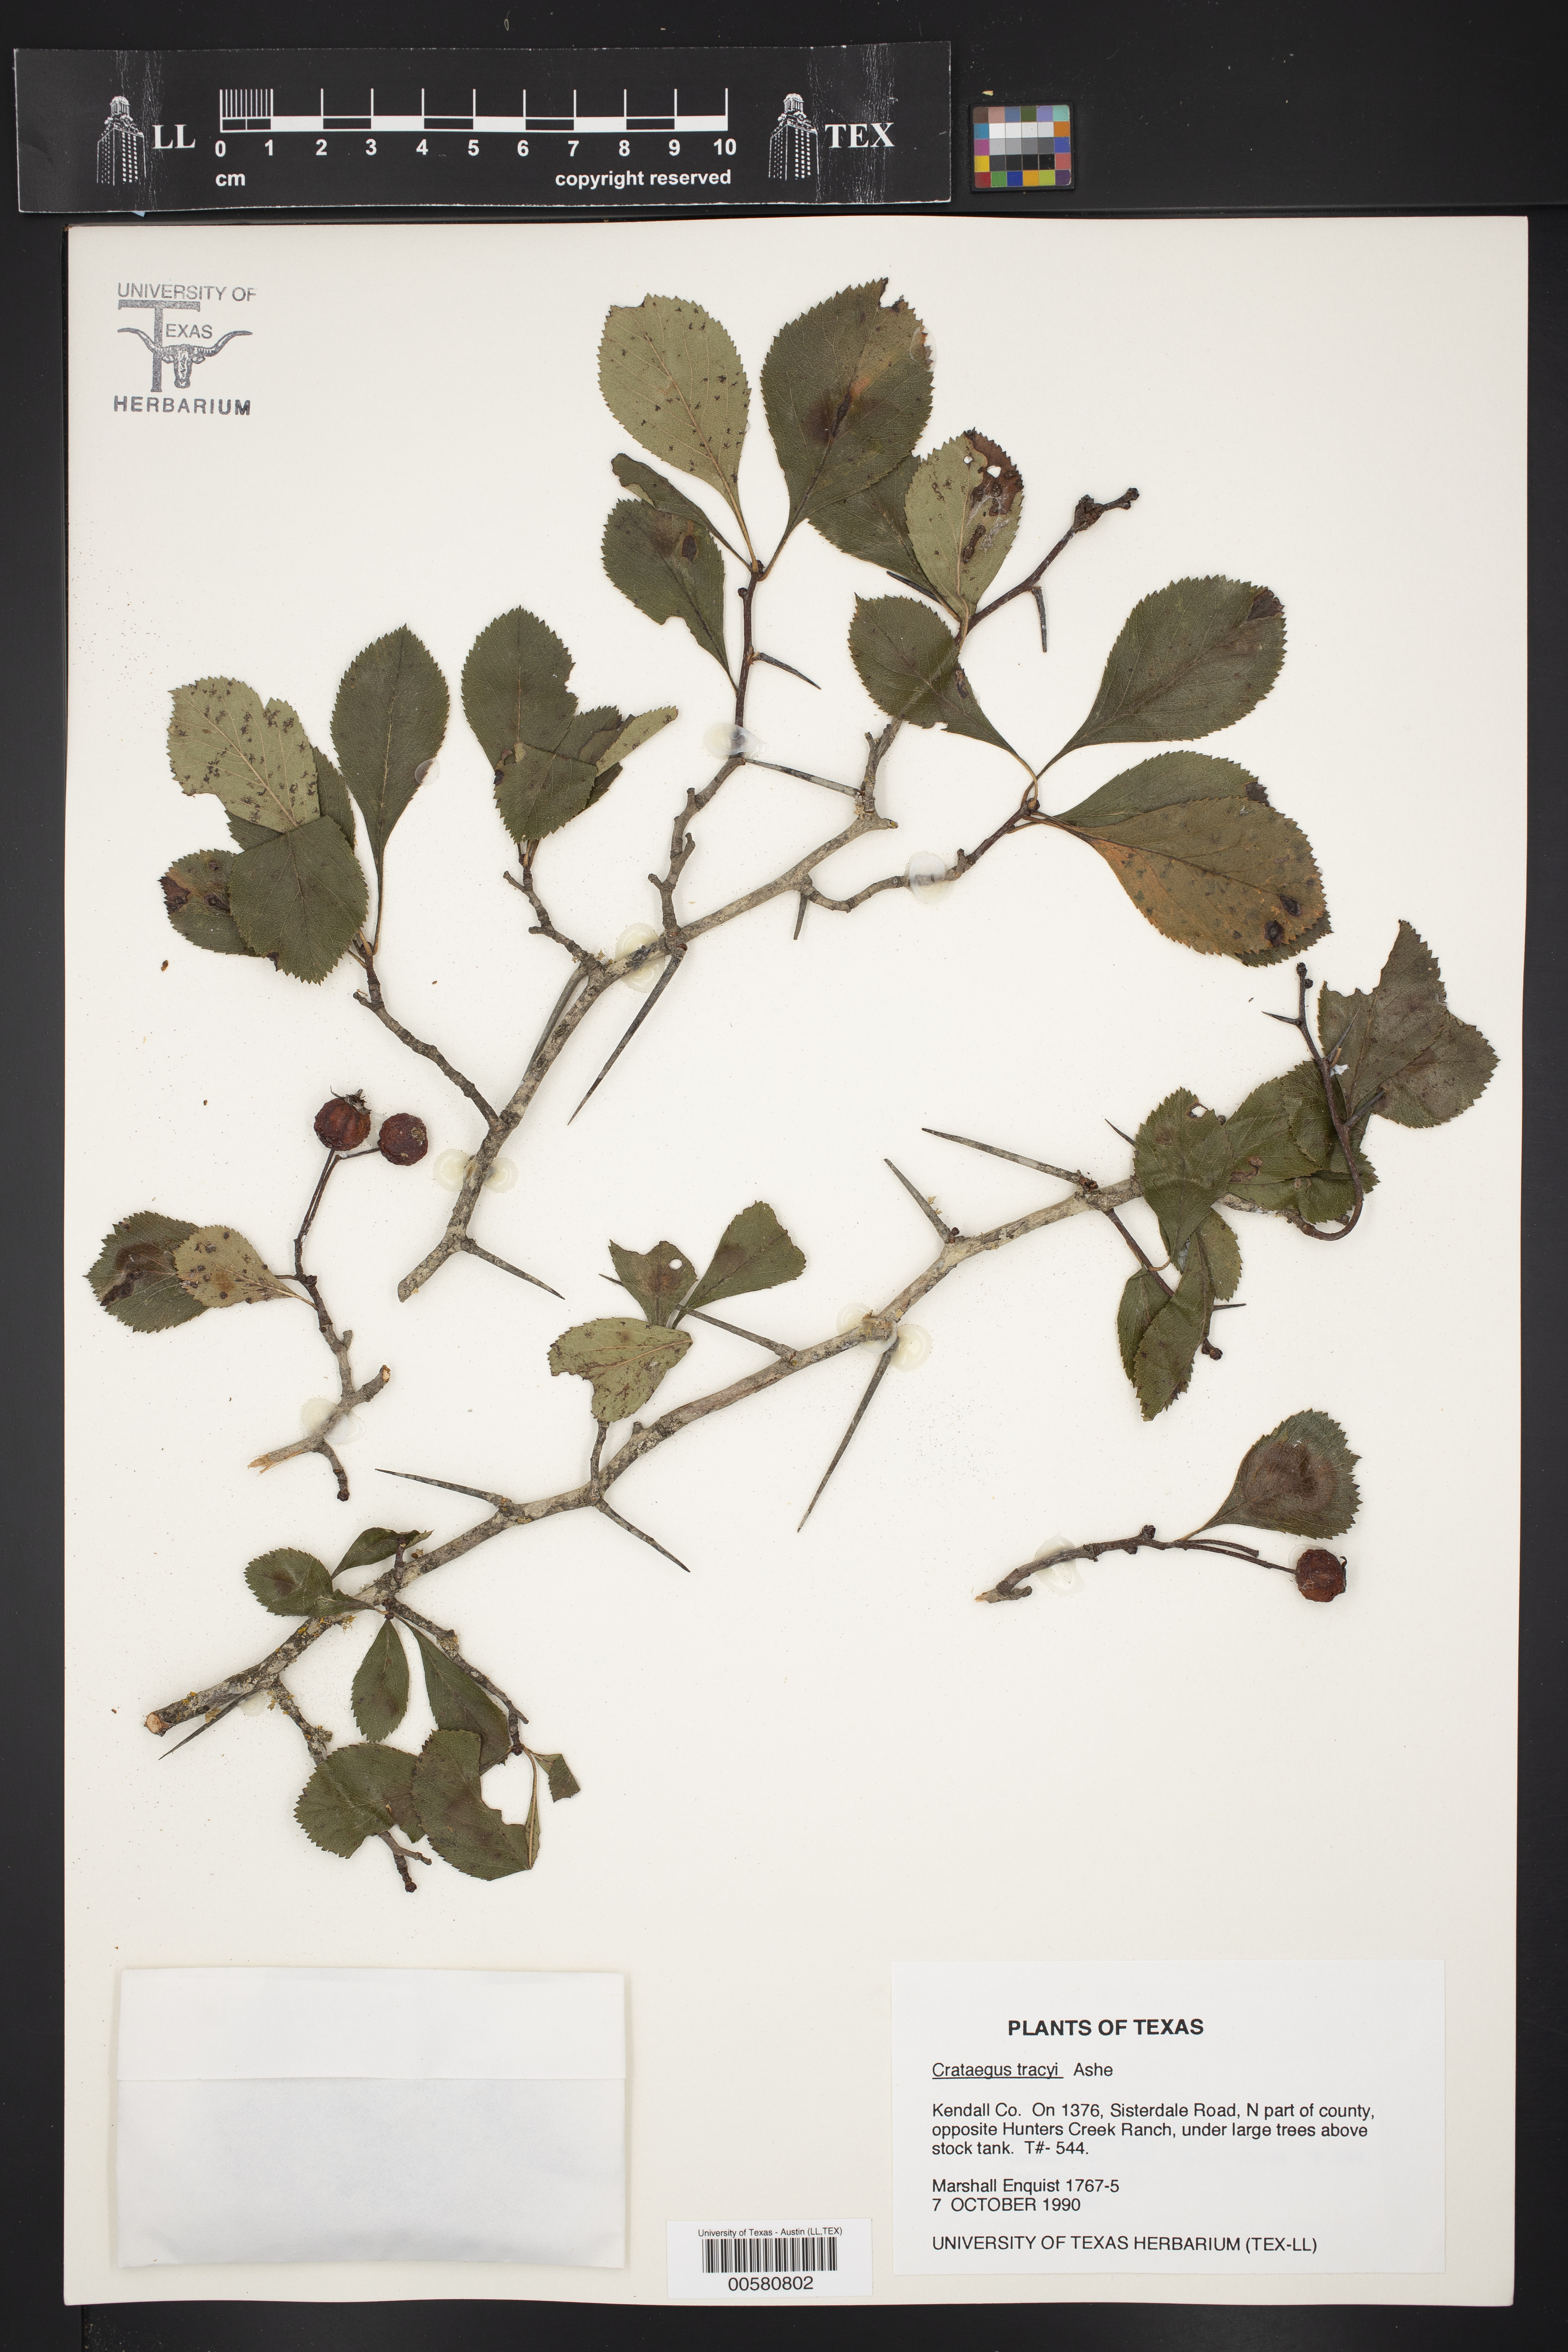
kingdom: Plantae
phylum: Tracheophyta
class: Magnoliopsida
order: Rosales
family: Rosaceae
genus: Crataegus
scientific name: Crataegus tracyi
